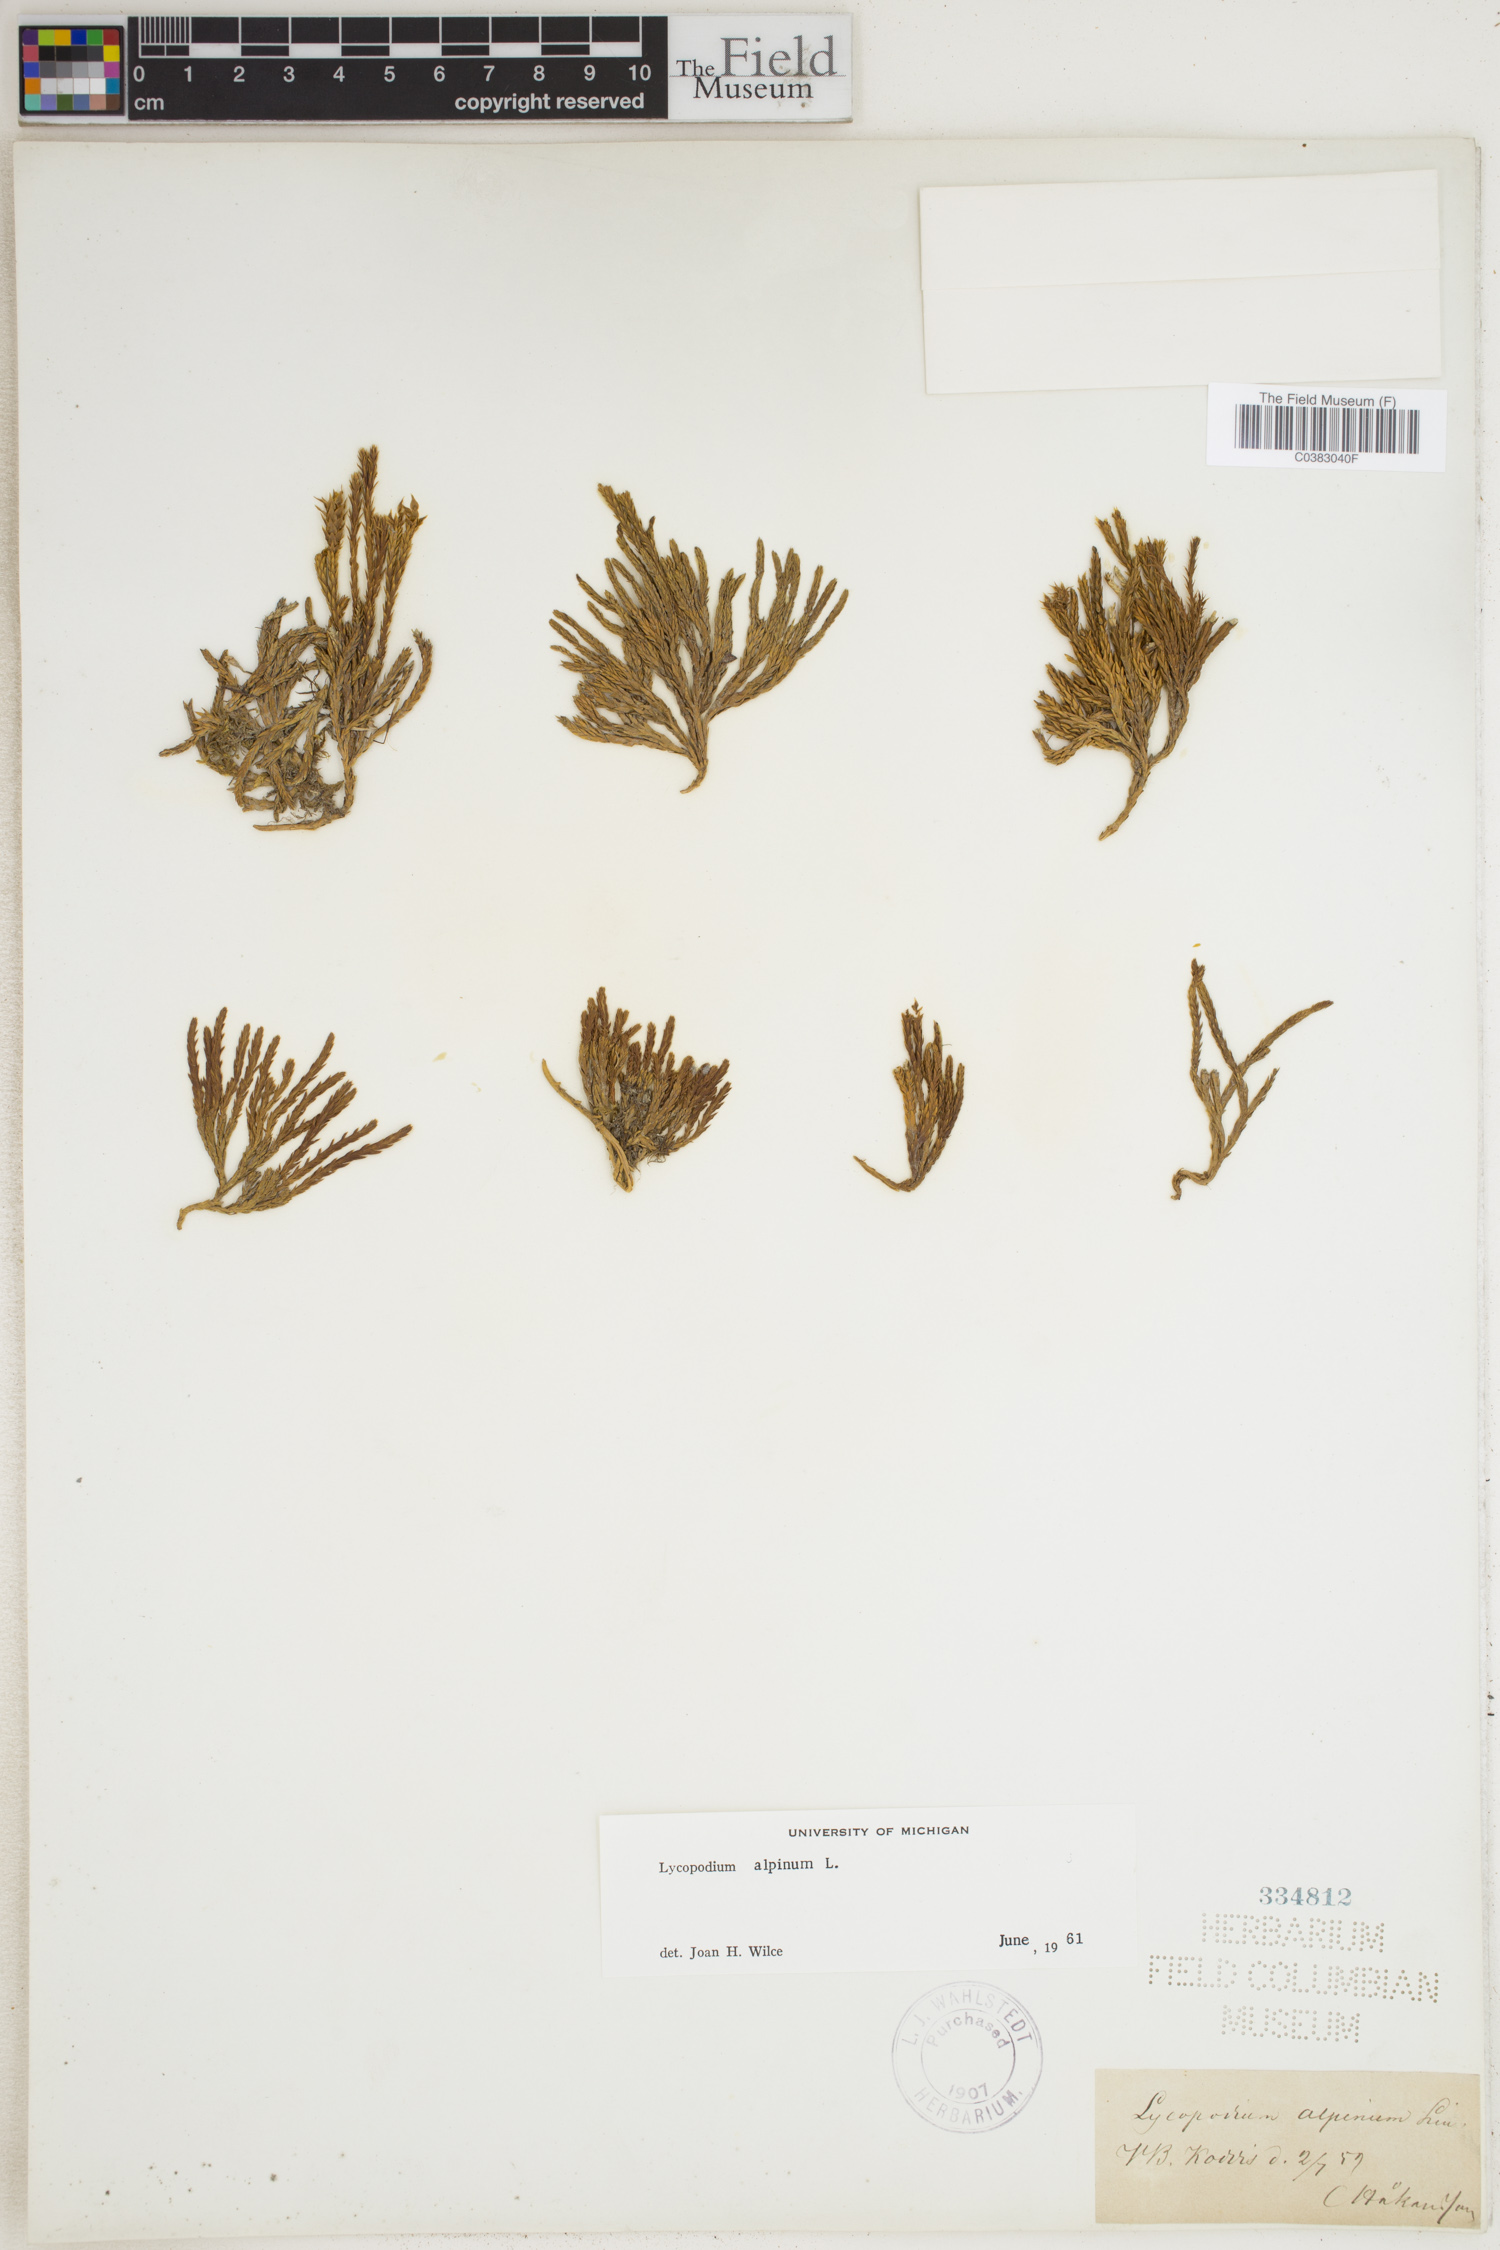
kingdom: Plantae
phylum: Tracheophyta
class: Lycopodiopsida
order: Lycopodiales
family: Lycopodiaceae
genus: Diphasiastrum
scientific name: Diphasiastrum alpinum
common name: Alpine clubmoss
